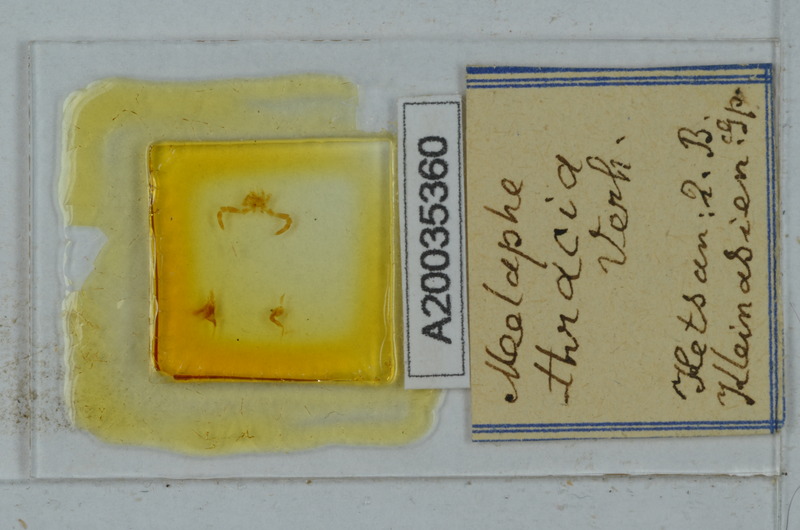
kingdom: Animalia
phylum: Arthropoda
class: Diplopoda
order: Polydesmida
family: Xystodesmidae
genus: Melaphe
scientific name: Melaphe vestita
